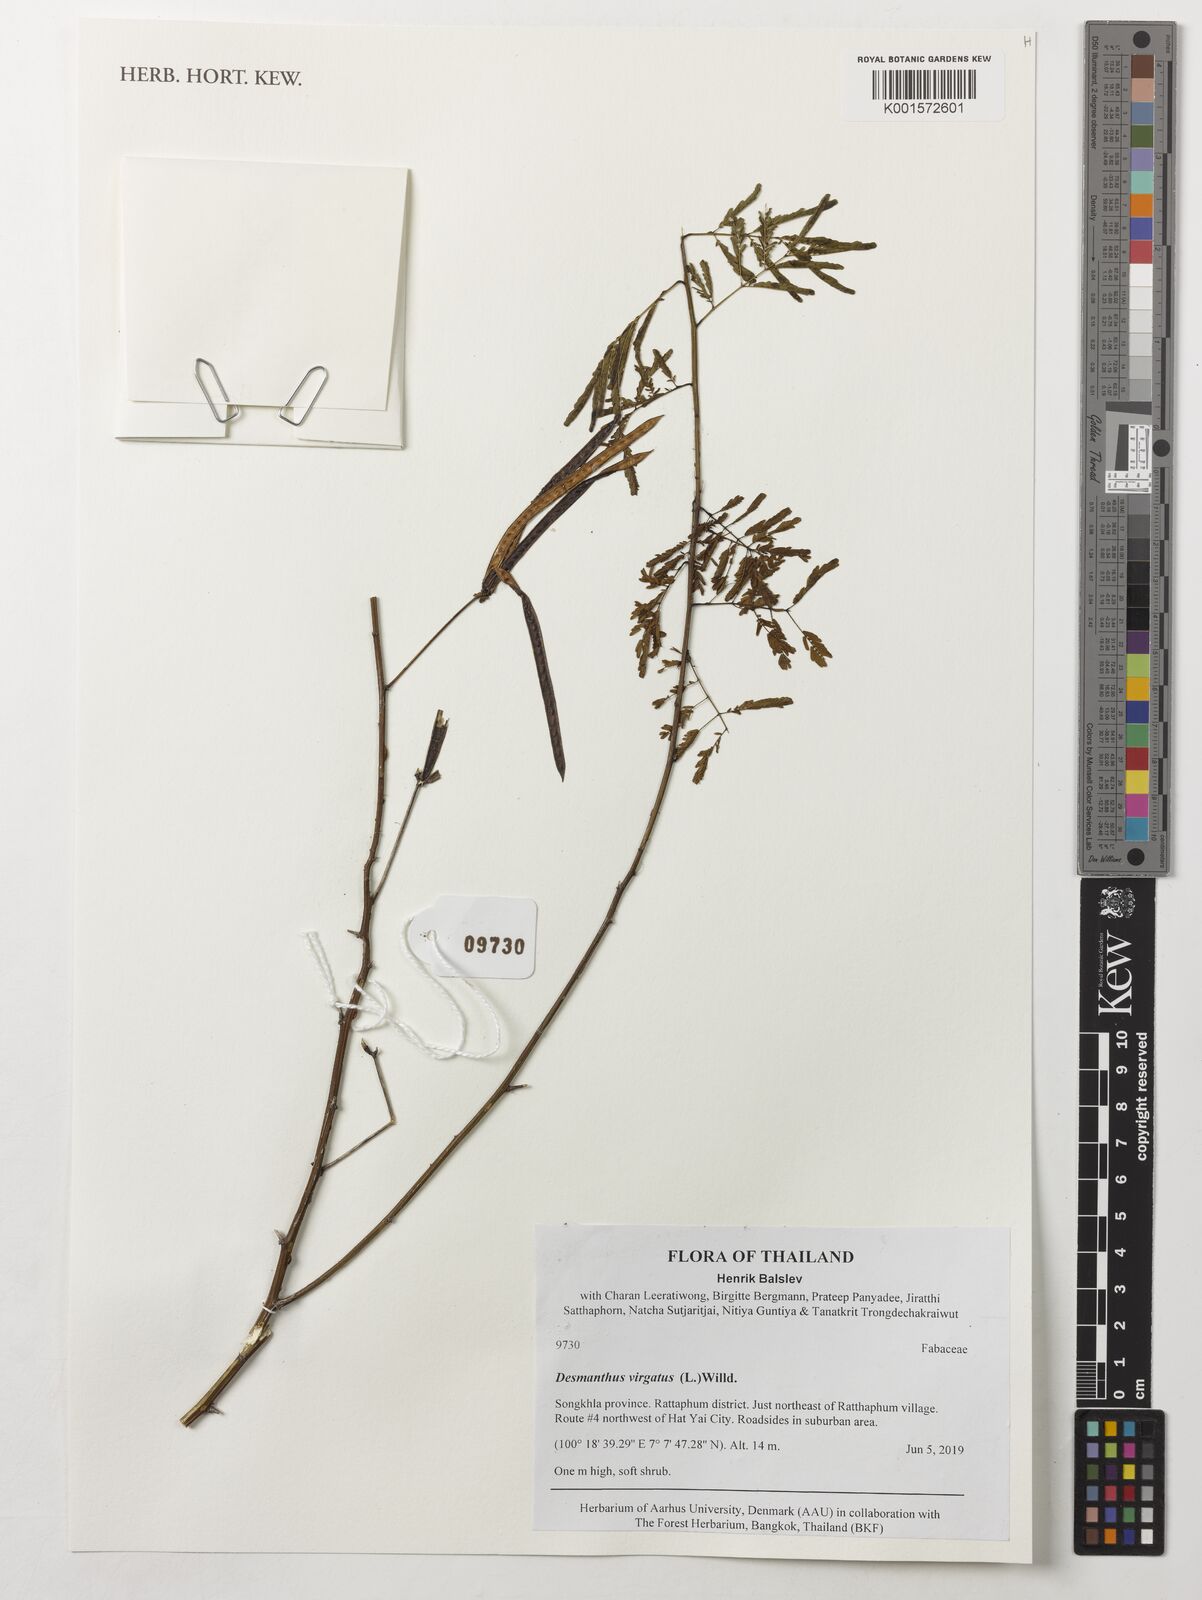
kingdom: Plantae
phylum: Tracheophyta
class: Magnoliopsida
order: Fabales
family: Fabaceae
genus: Desmanthus
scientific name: Desmanthus virgatus
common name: Wild tantan
